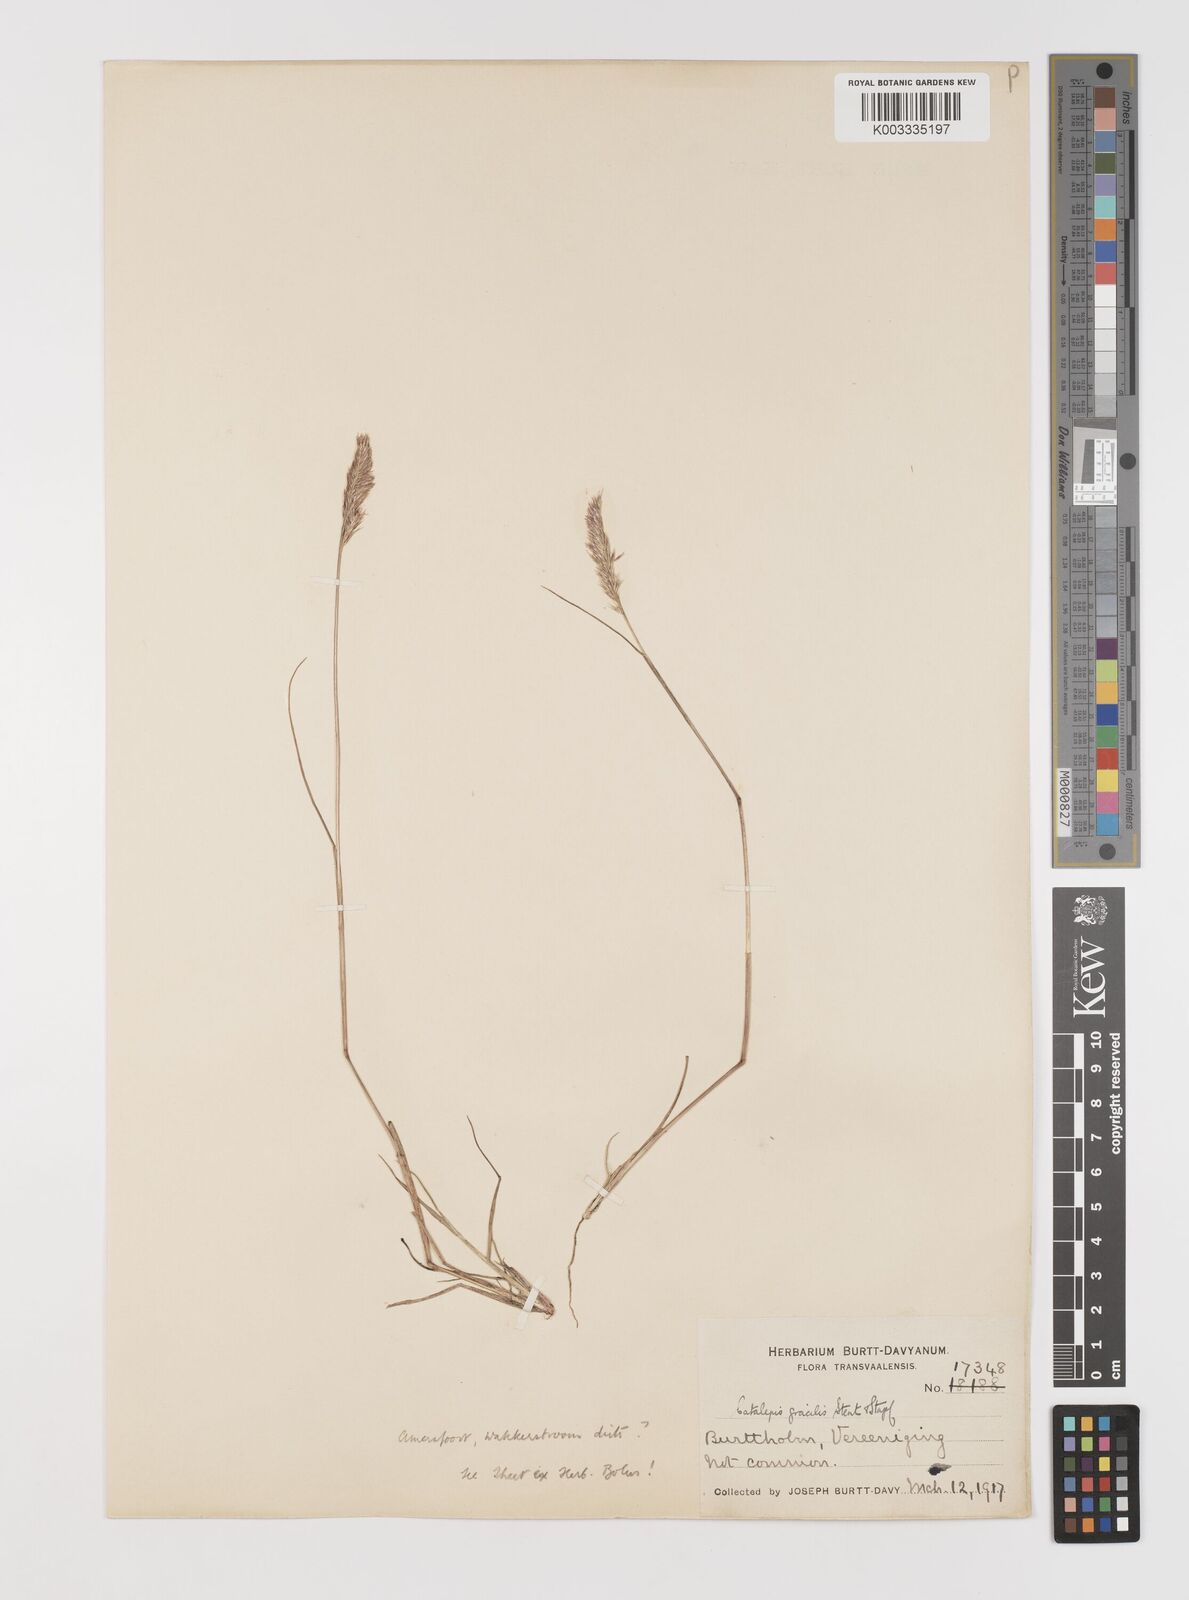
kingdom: Plantae
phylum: Tracheophyta
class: Liliopsida
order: Poales
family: Poaceae
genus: Catalepis
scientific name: Catalepis gracilis
